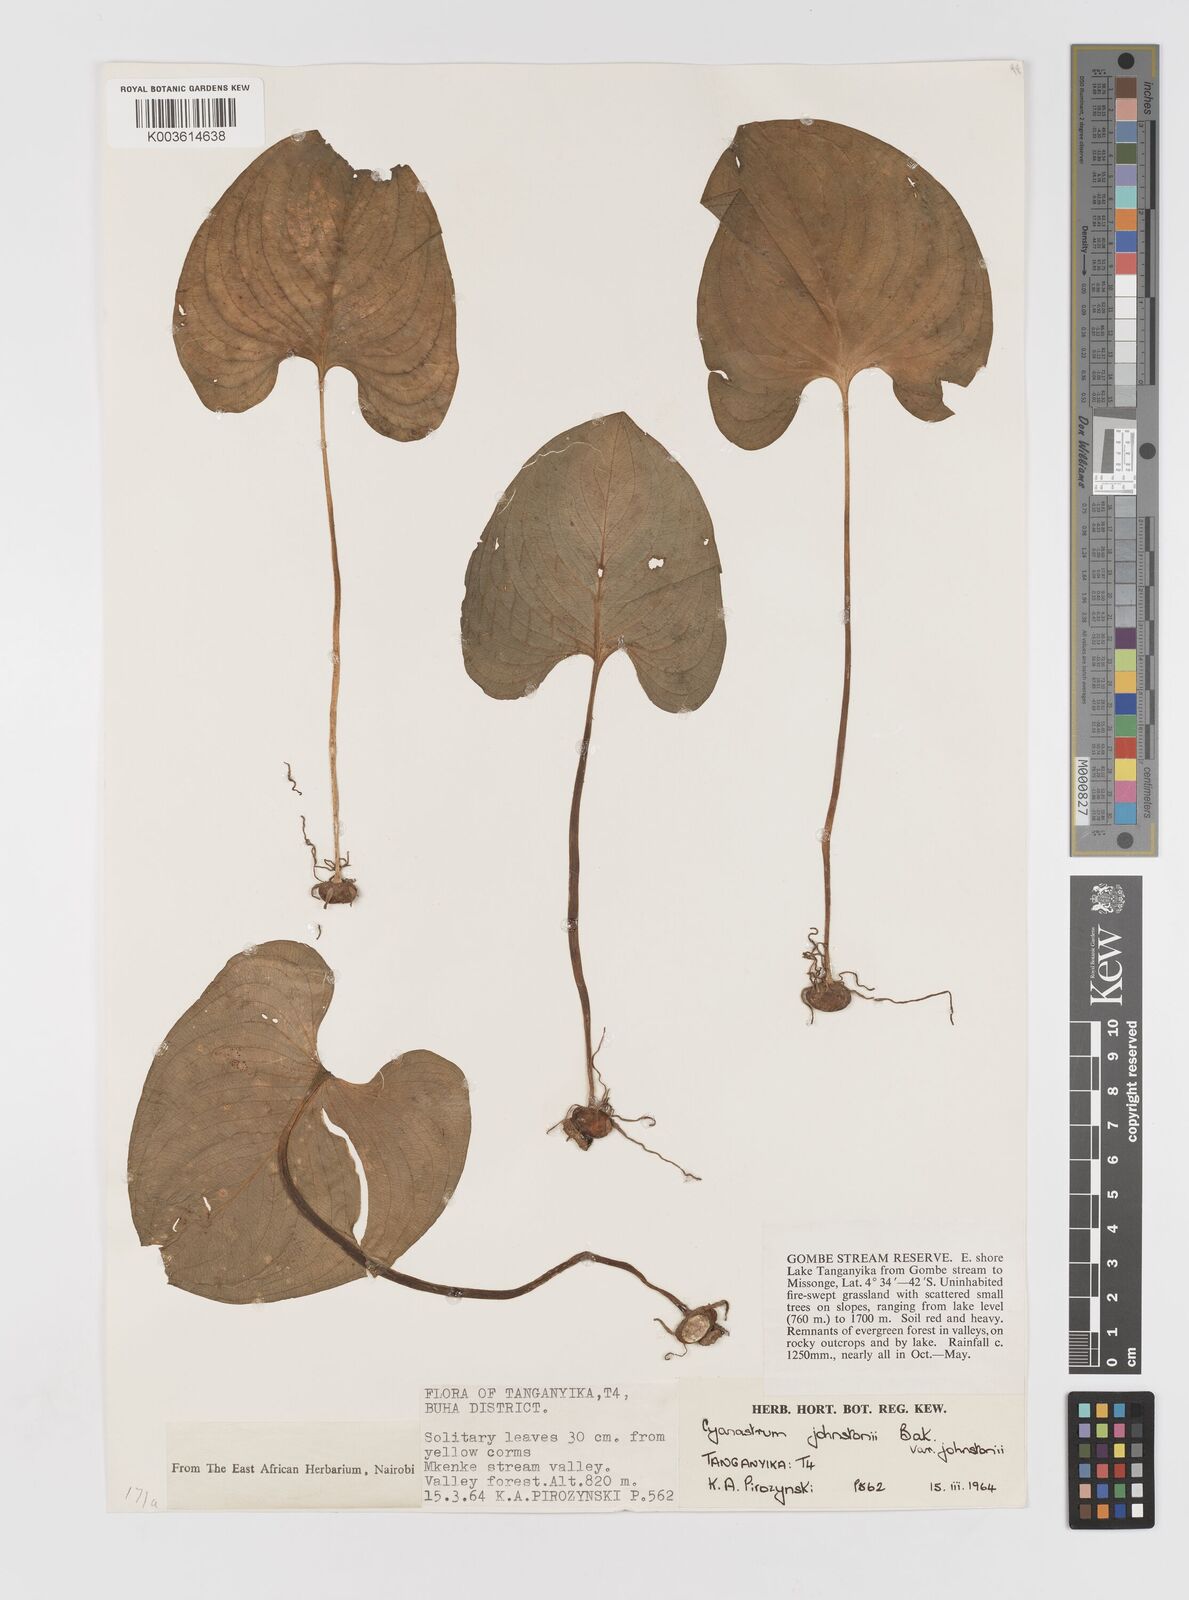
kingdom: Plantae
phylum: Tracheophyta
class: Liliopsida
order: Asparagales
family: Tecophilaeaceae
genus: Cyanastrum
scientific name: Cyanastrum johnstonii
